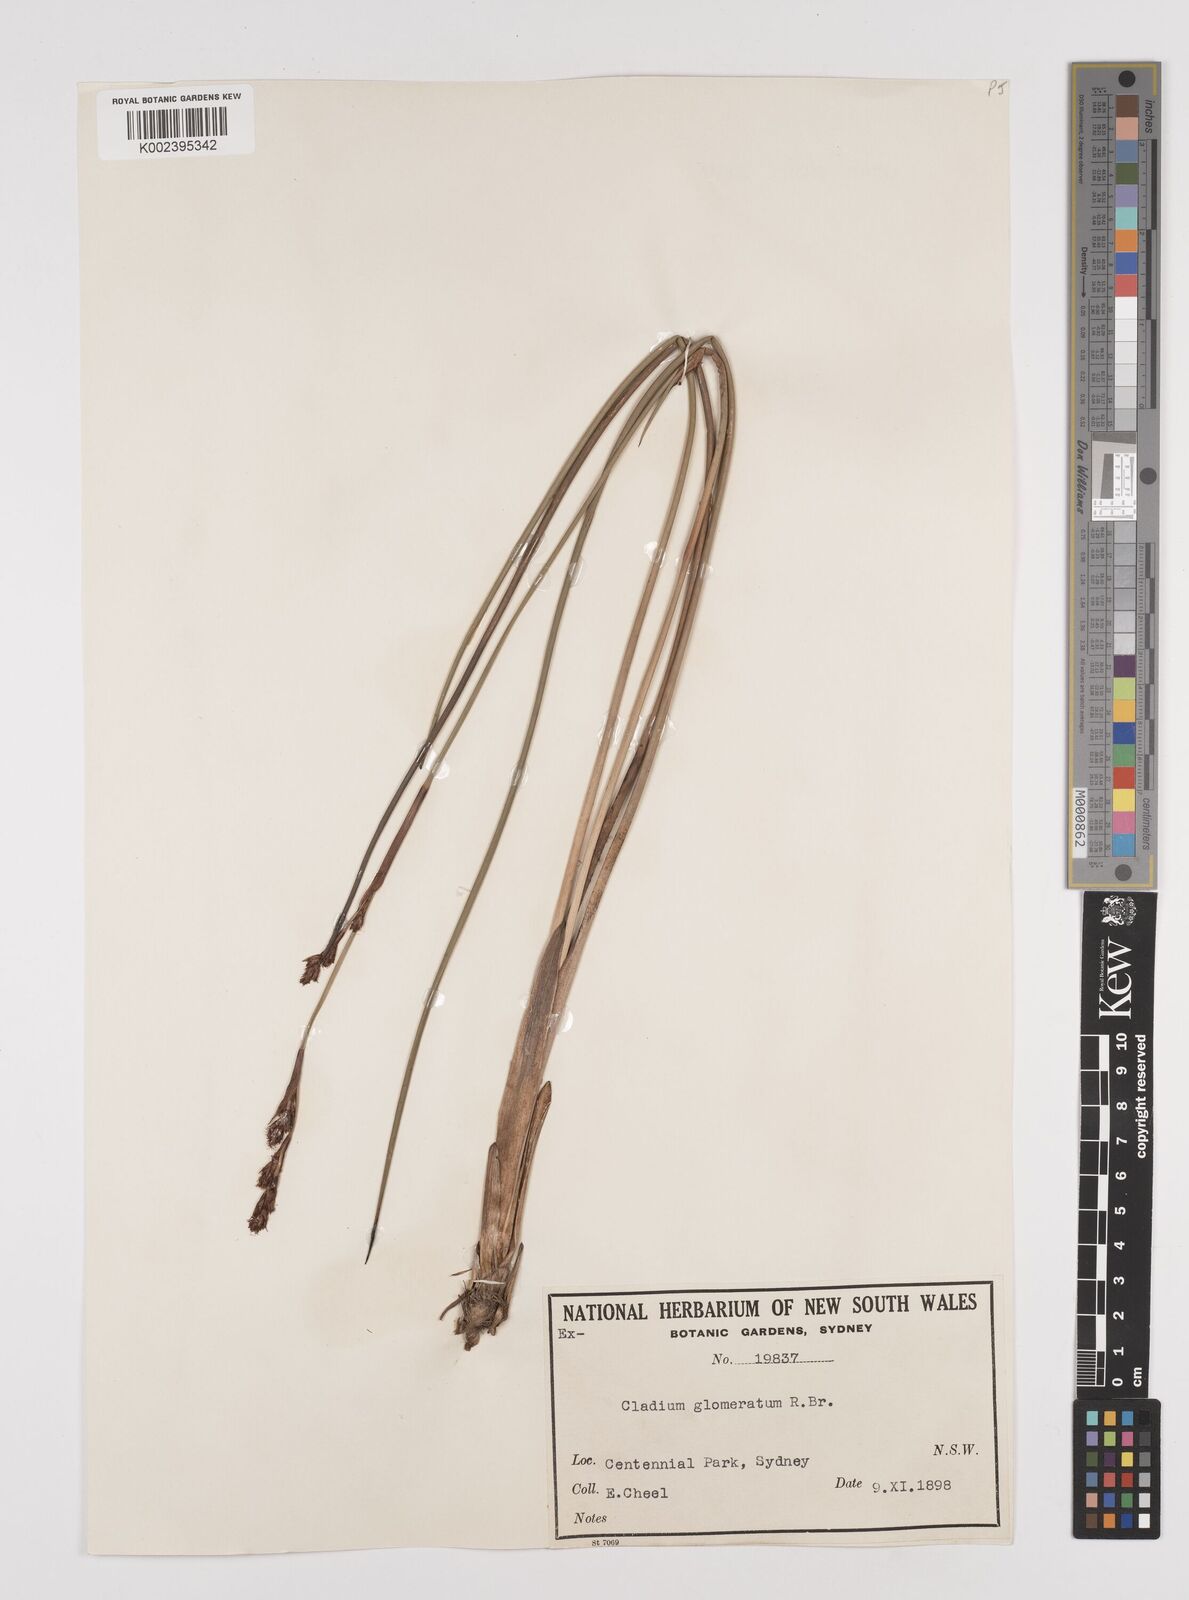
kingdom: Plantae
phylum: Tracheophyta
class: Liliopsida
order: Poales
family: Cyperaceae
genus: Machaerina
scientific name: Machaerina rubiginosa
